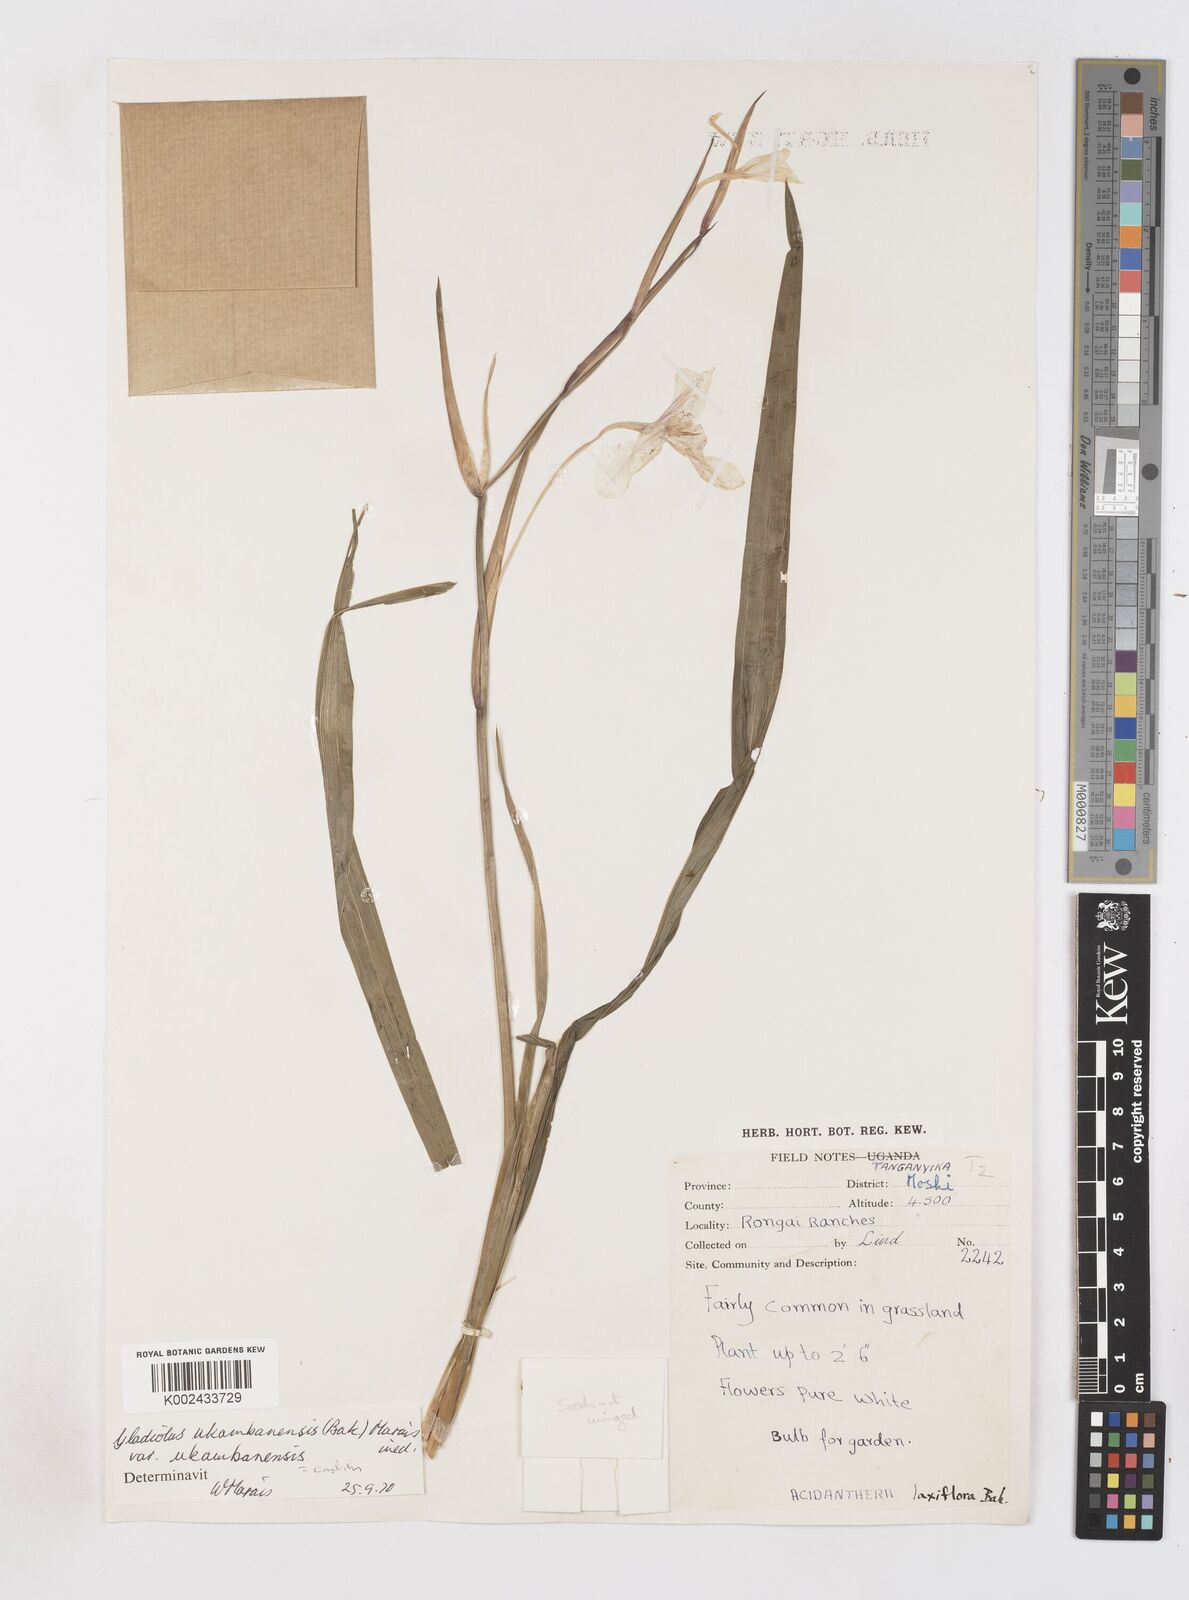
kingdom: Plantae
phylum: Tracheophyta
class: Liliopsida
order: Asparagales
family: Iridaceae
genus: Gladiolus
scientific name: Gladiolus candidus
